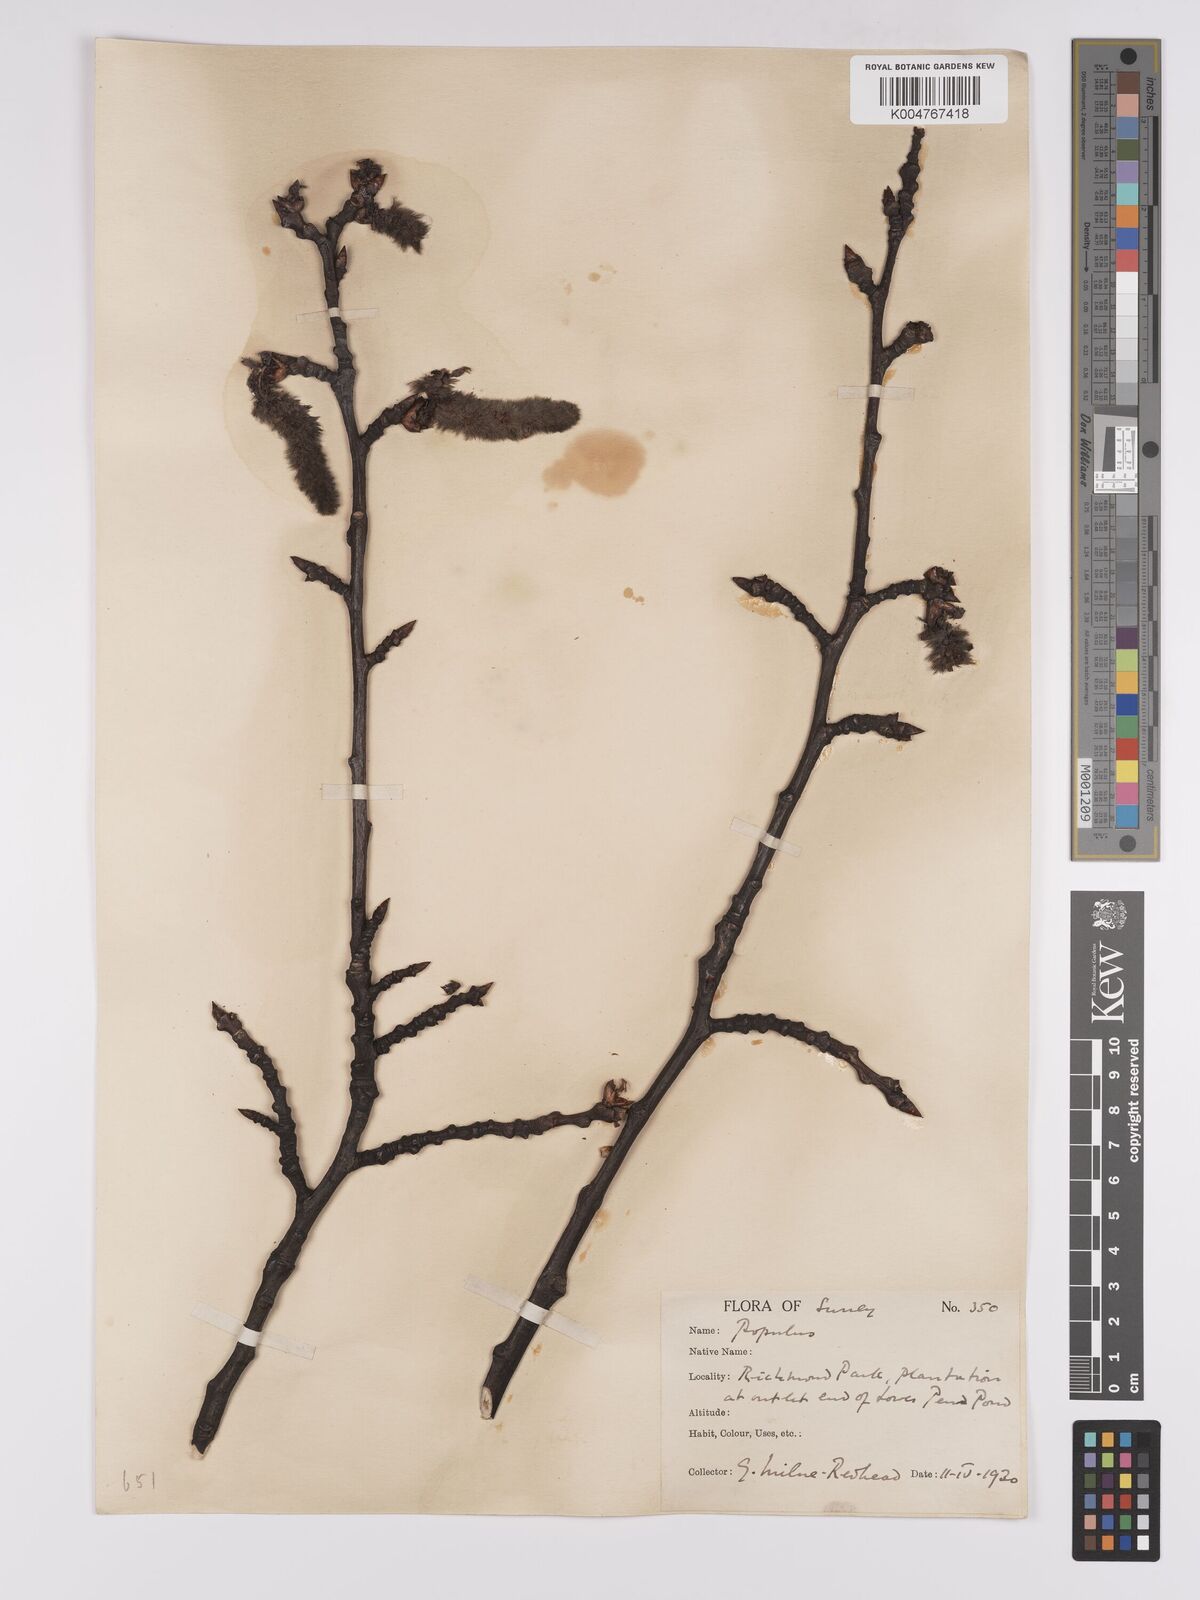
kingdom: Plantae
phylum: Tracheophyta
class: Magnoliopsida
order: Malpighiales
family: Salicaceae
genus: Populus
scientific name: Populus canescens
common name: Gray poplar
